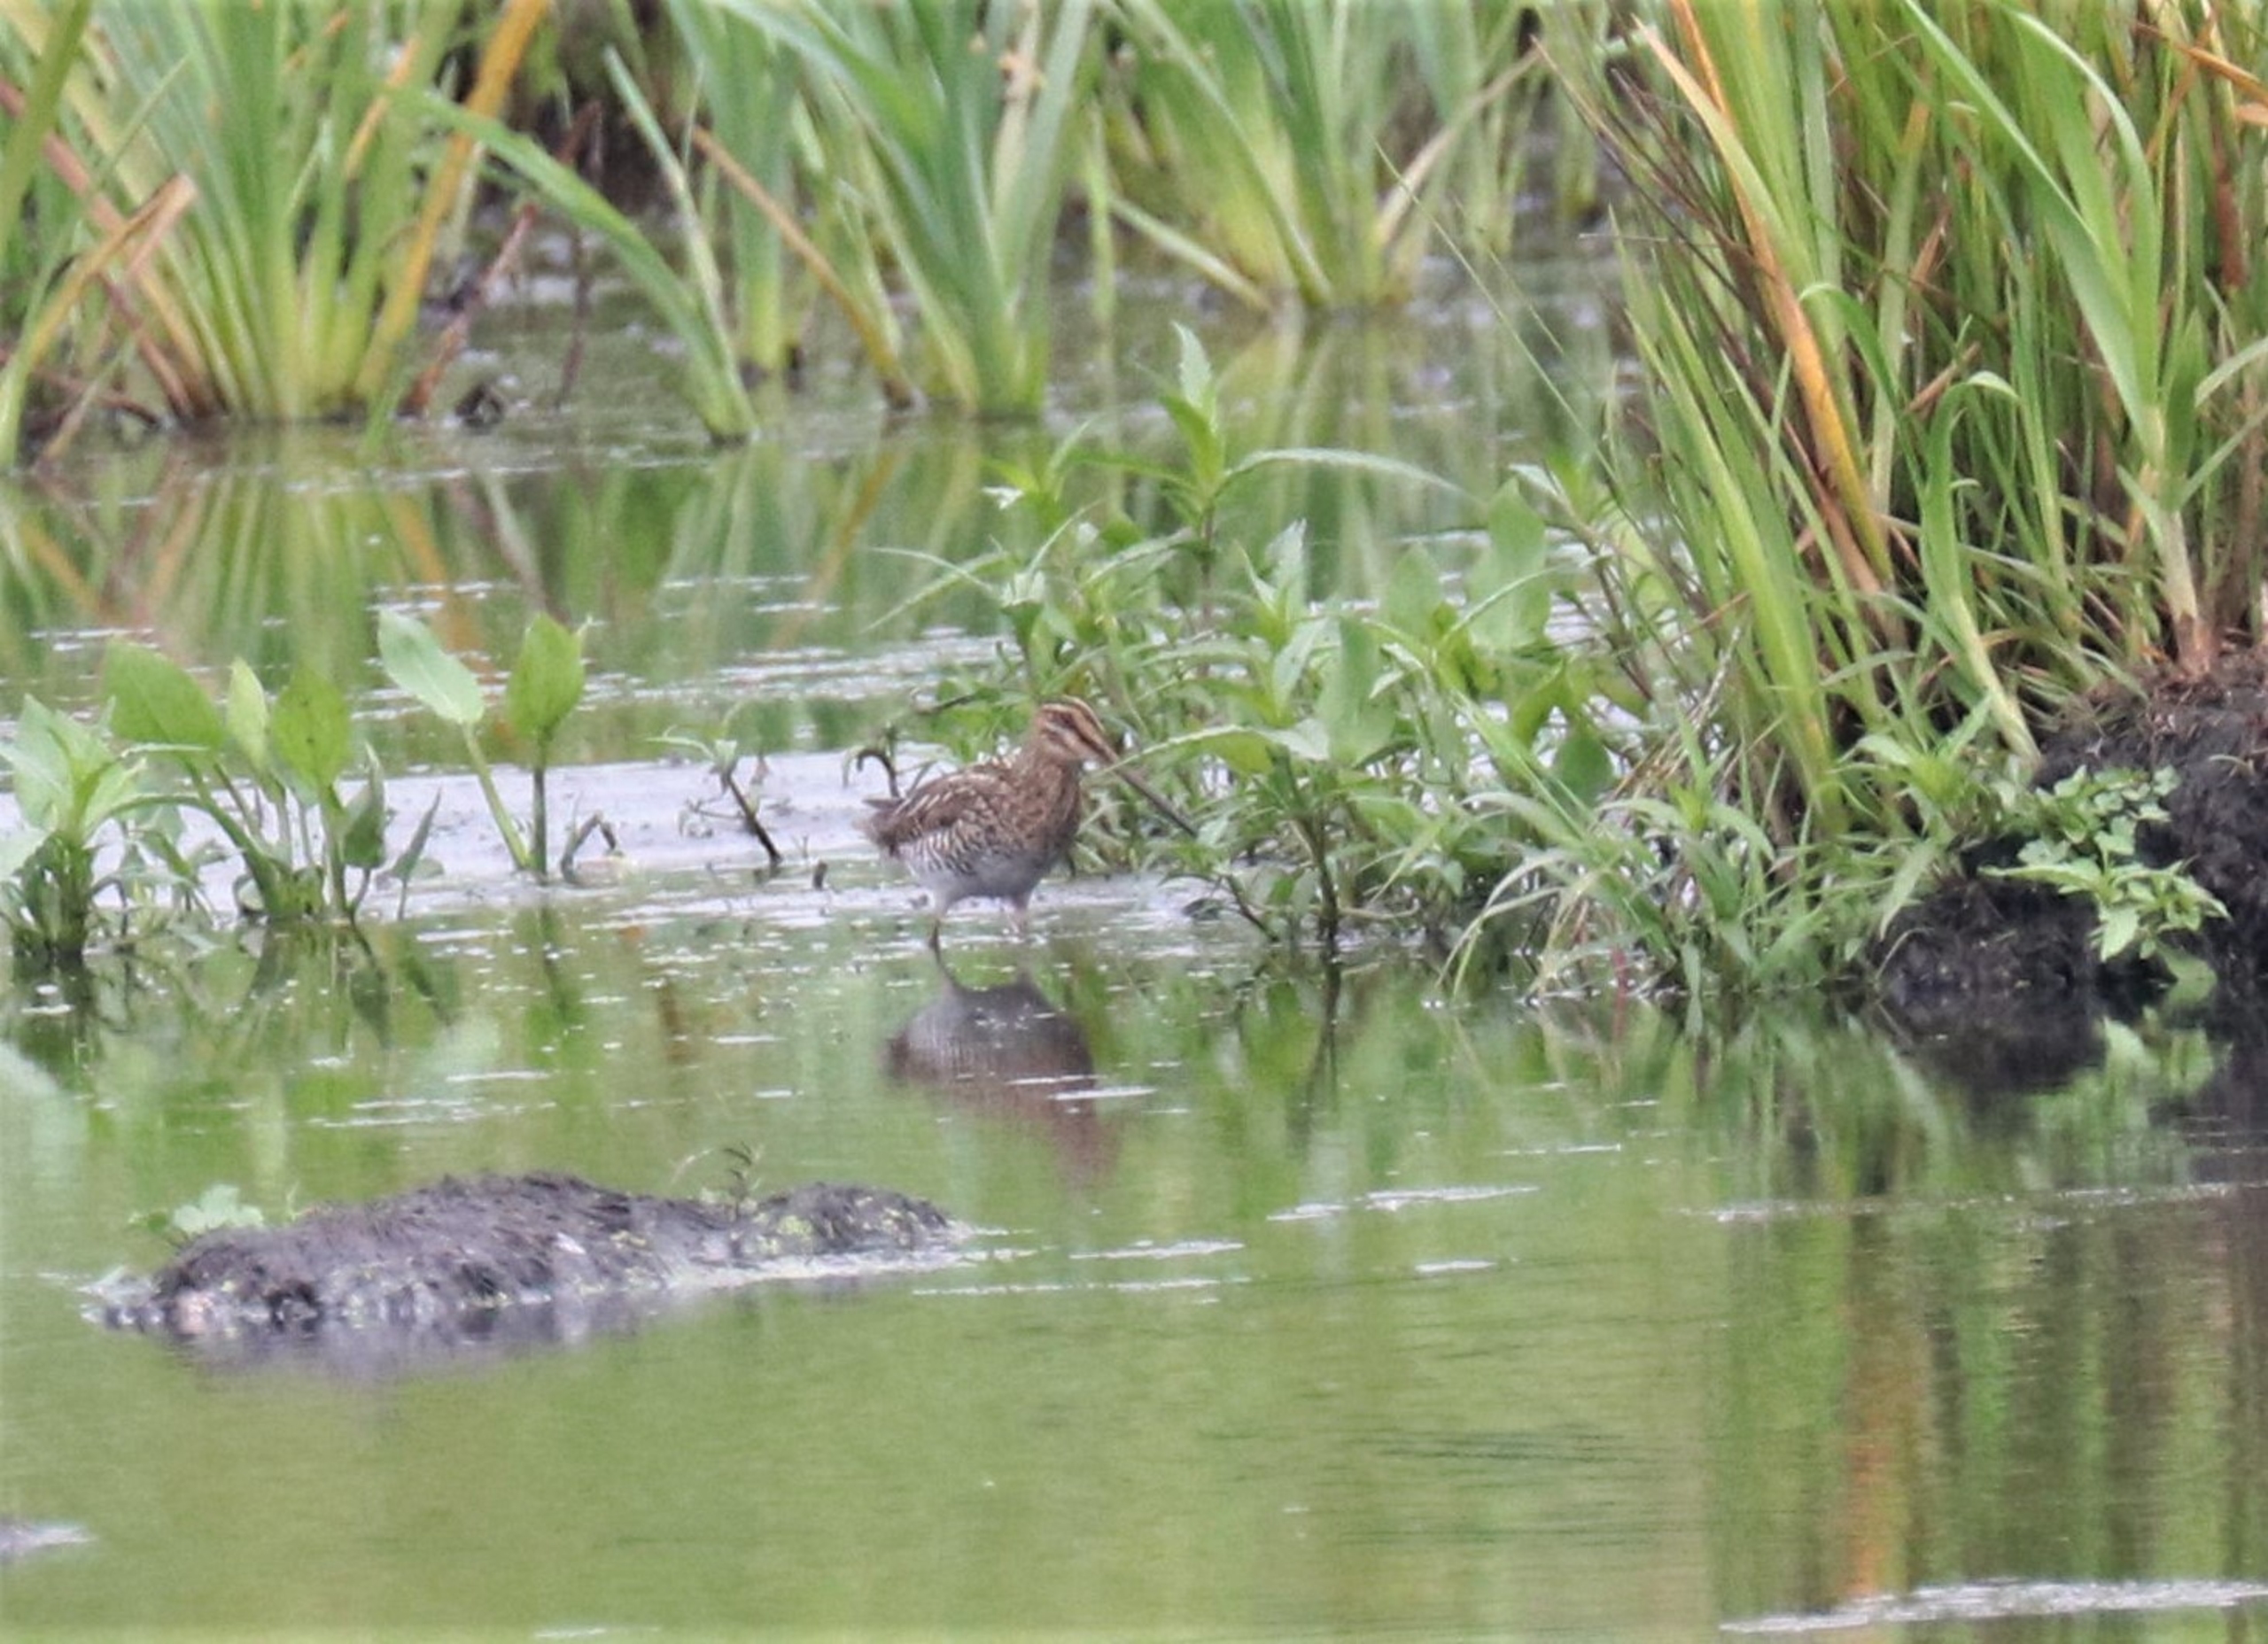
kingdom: Animalia
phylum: Chordata
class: Aves
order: Charadriiformes
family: Scolopacidae
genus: Gallinago
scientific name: Gallinago gallinago
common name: Dobbeltbekkasin
